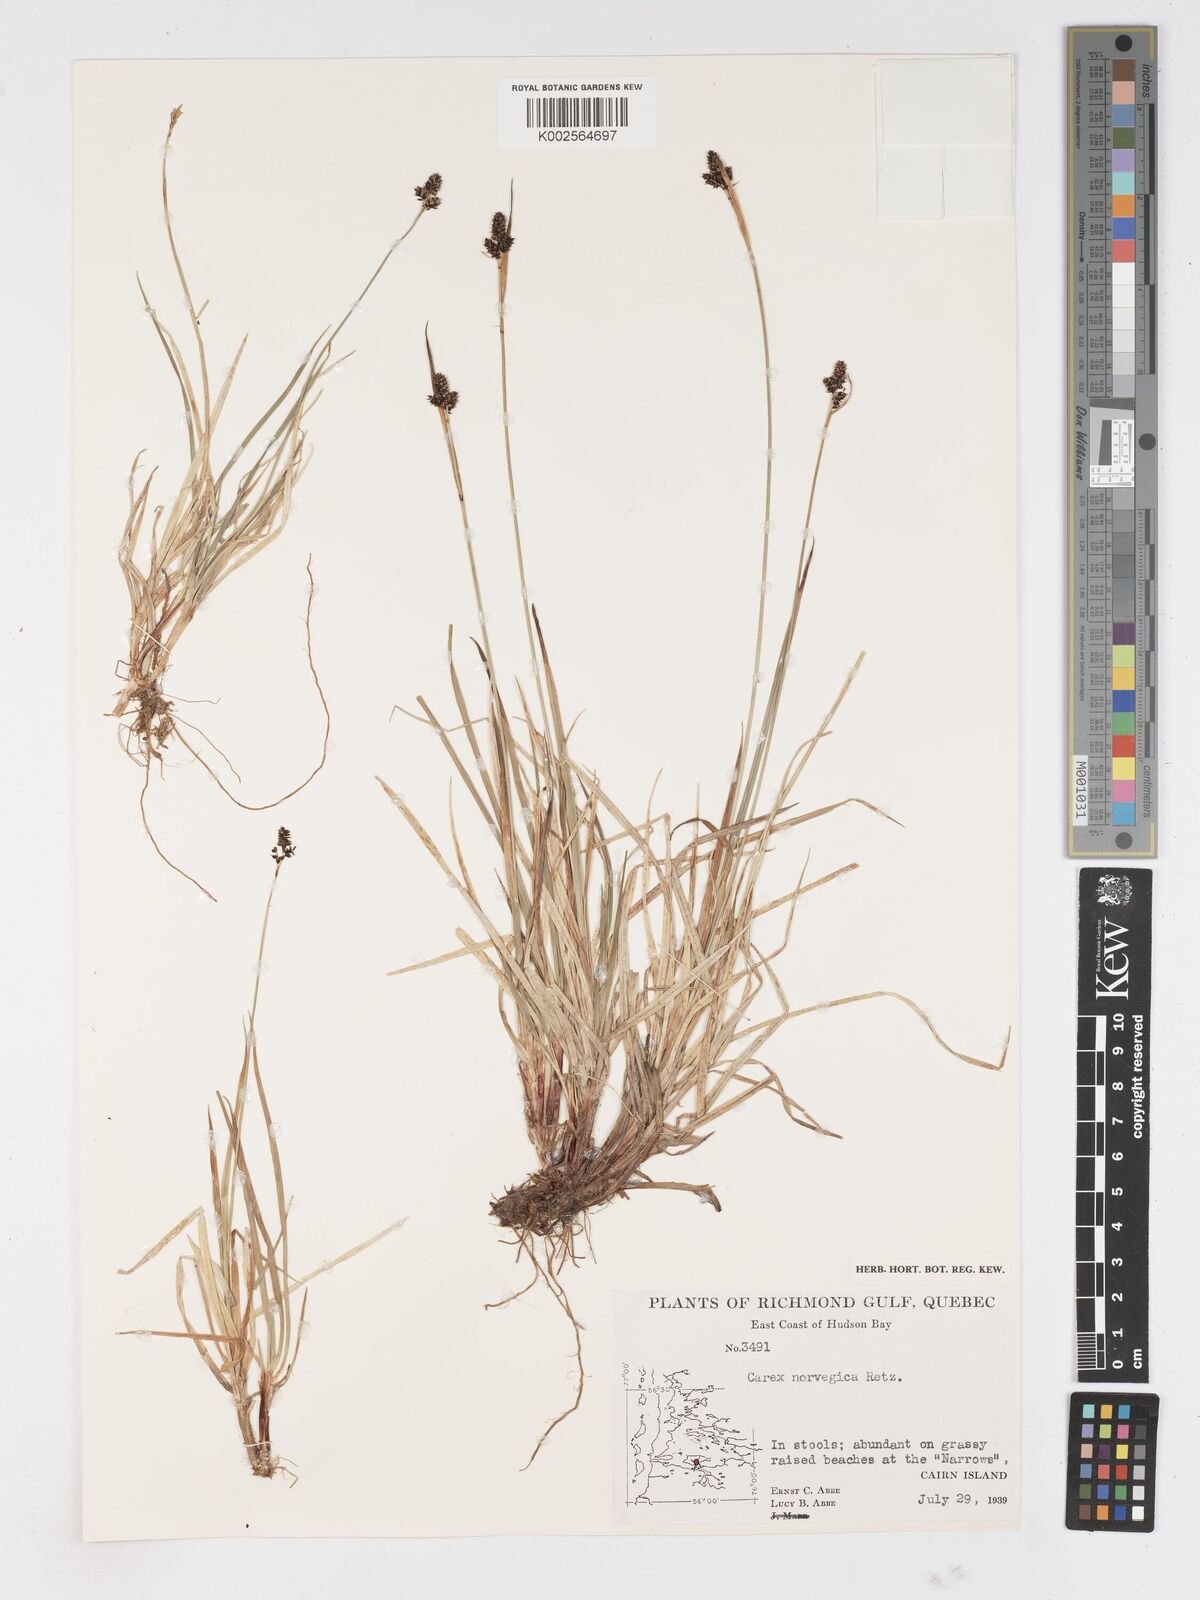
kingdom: Plantae
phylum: Tracheophyta
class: Liliopsida
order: Poales
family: Cyperaceae
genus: Carex
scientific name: Carex norvegica
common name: Close-headed alpine-sedge
